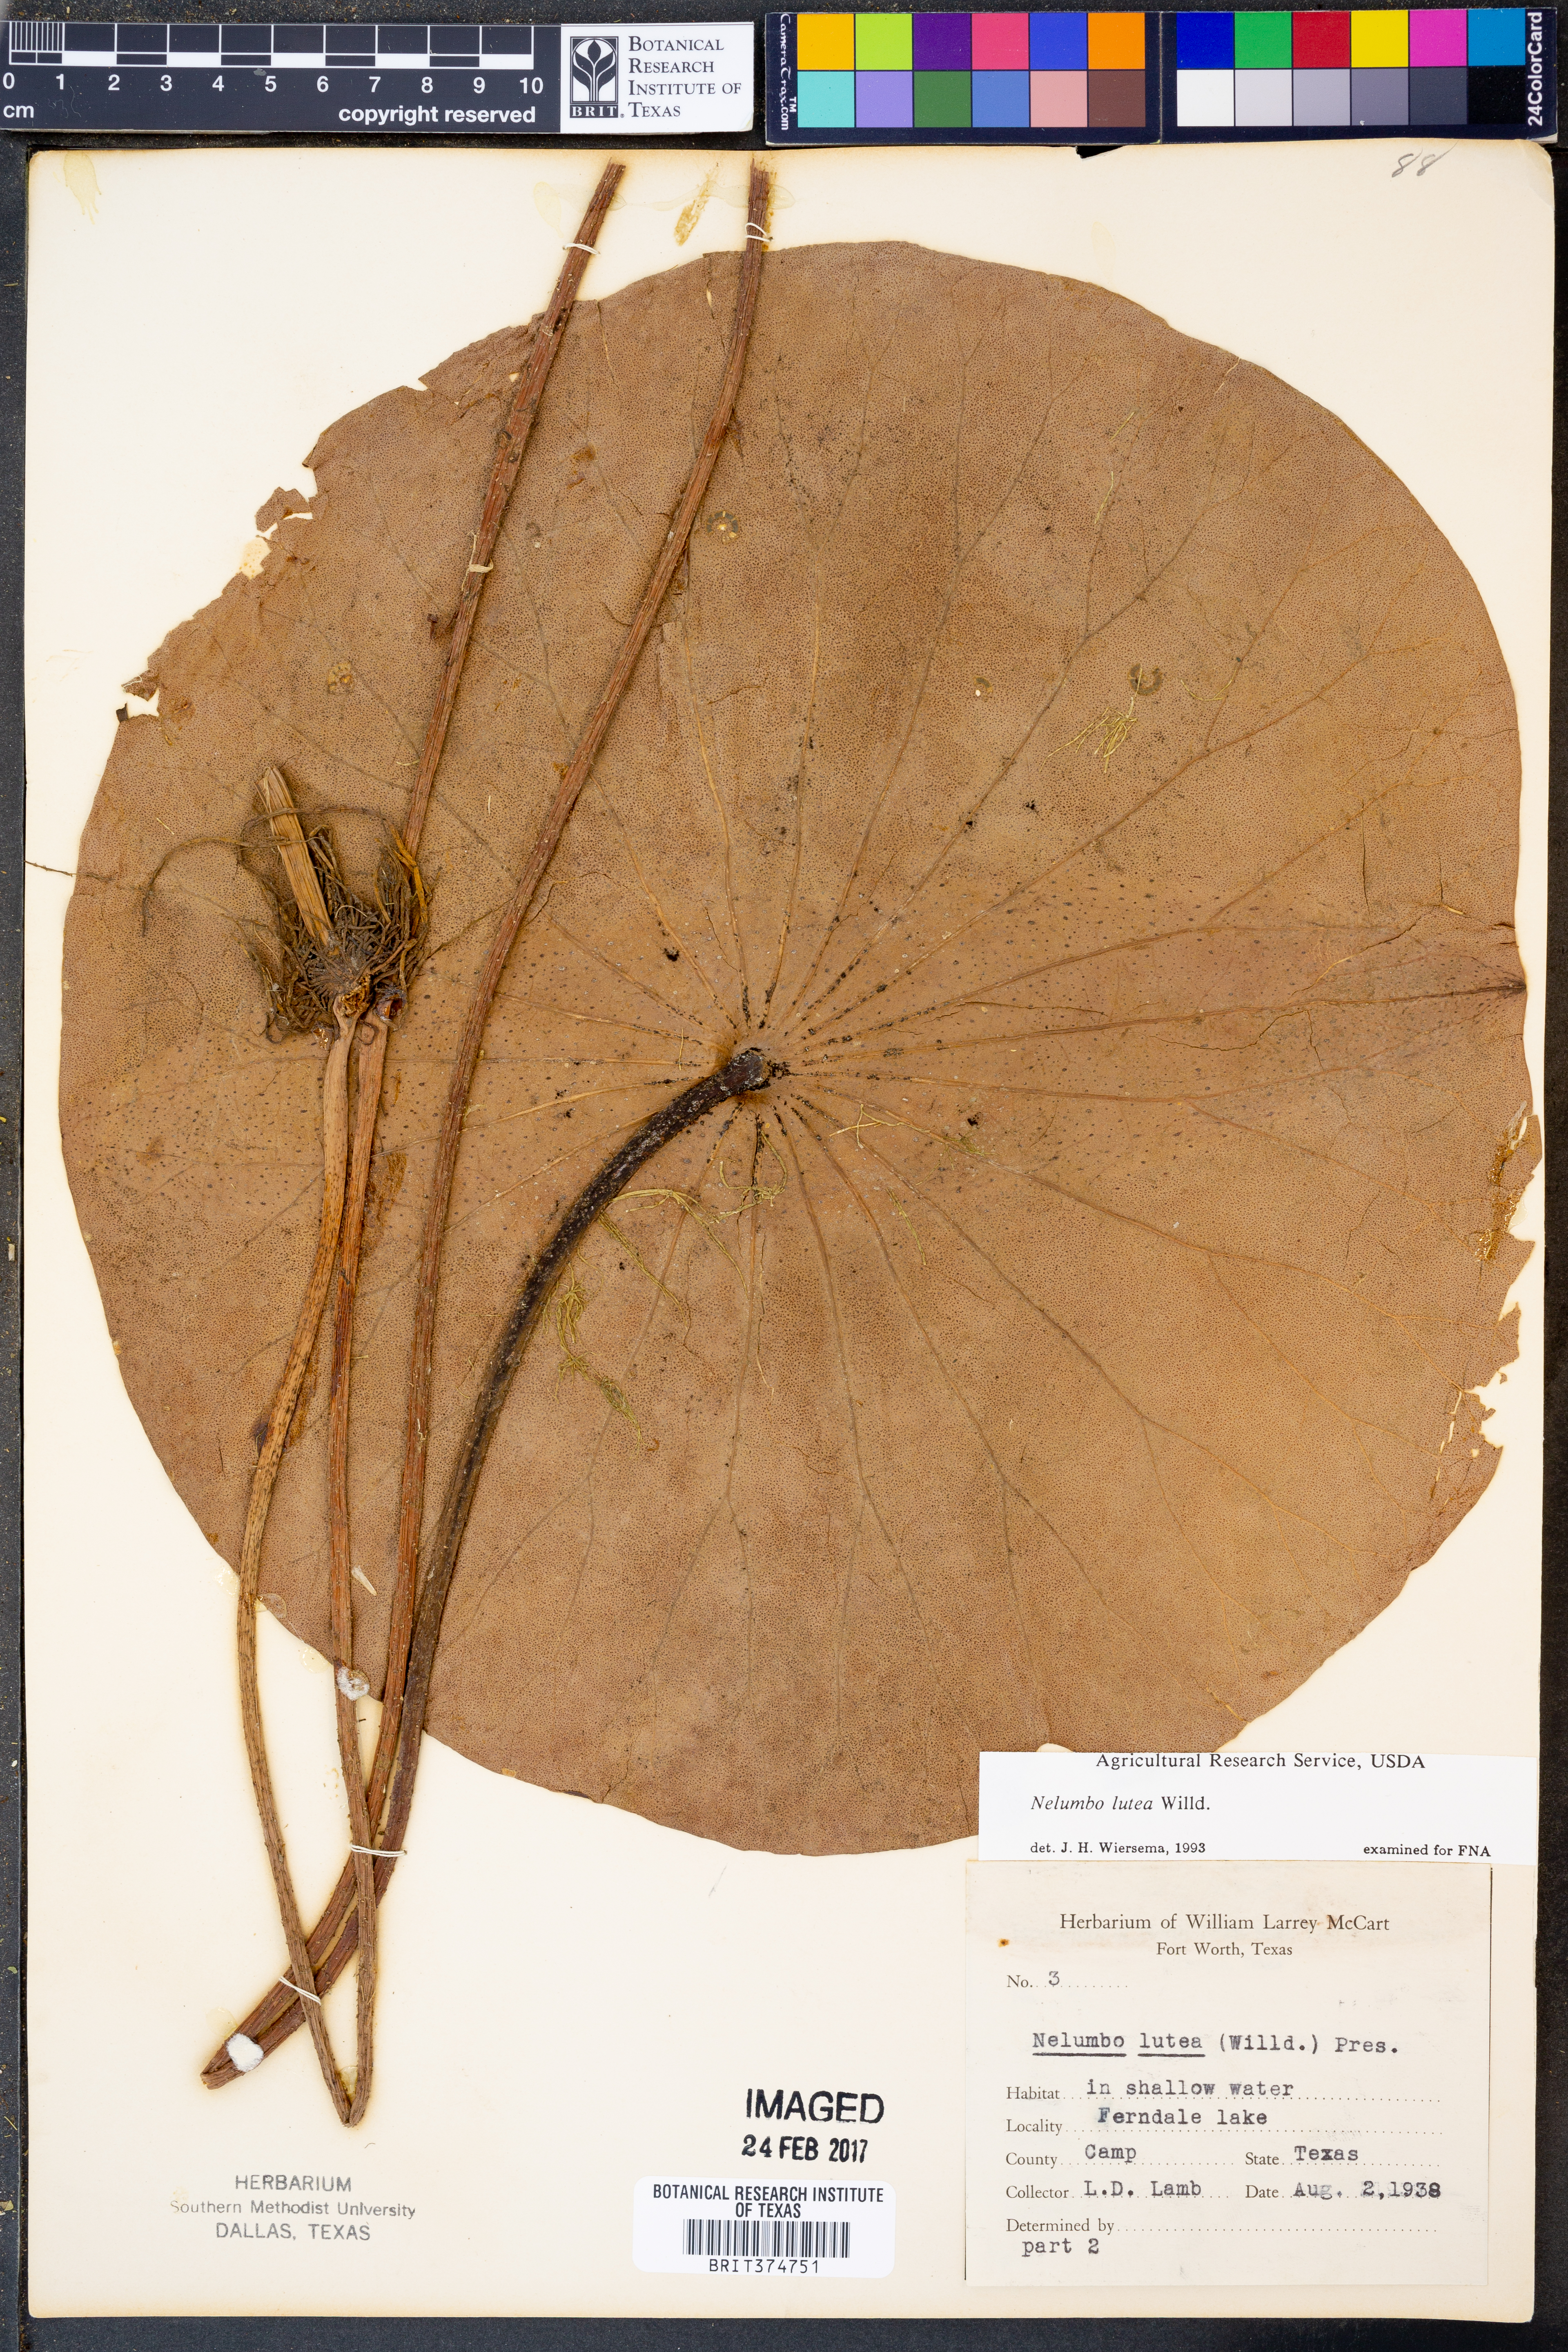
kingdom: Plantae
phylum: Tracheophyta
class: Magnoliopsida
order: Proteales
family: Nelumbonaceae
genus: Nelumbo
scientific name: Nelumbo lutea
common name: American lotus
